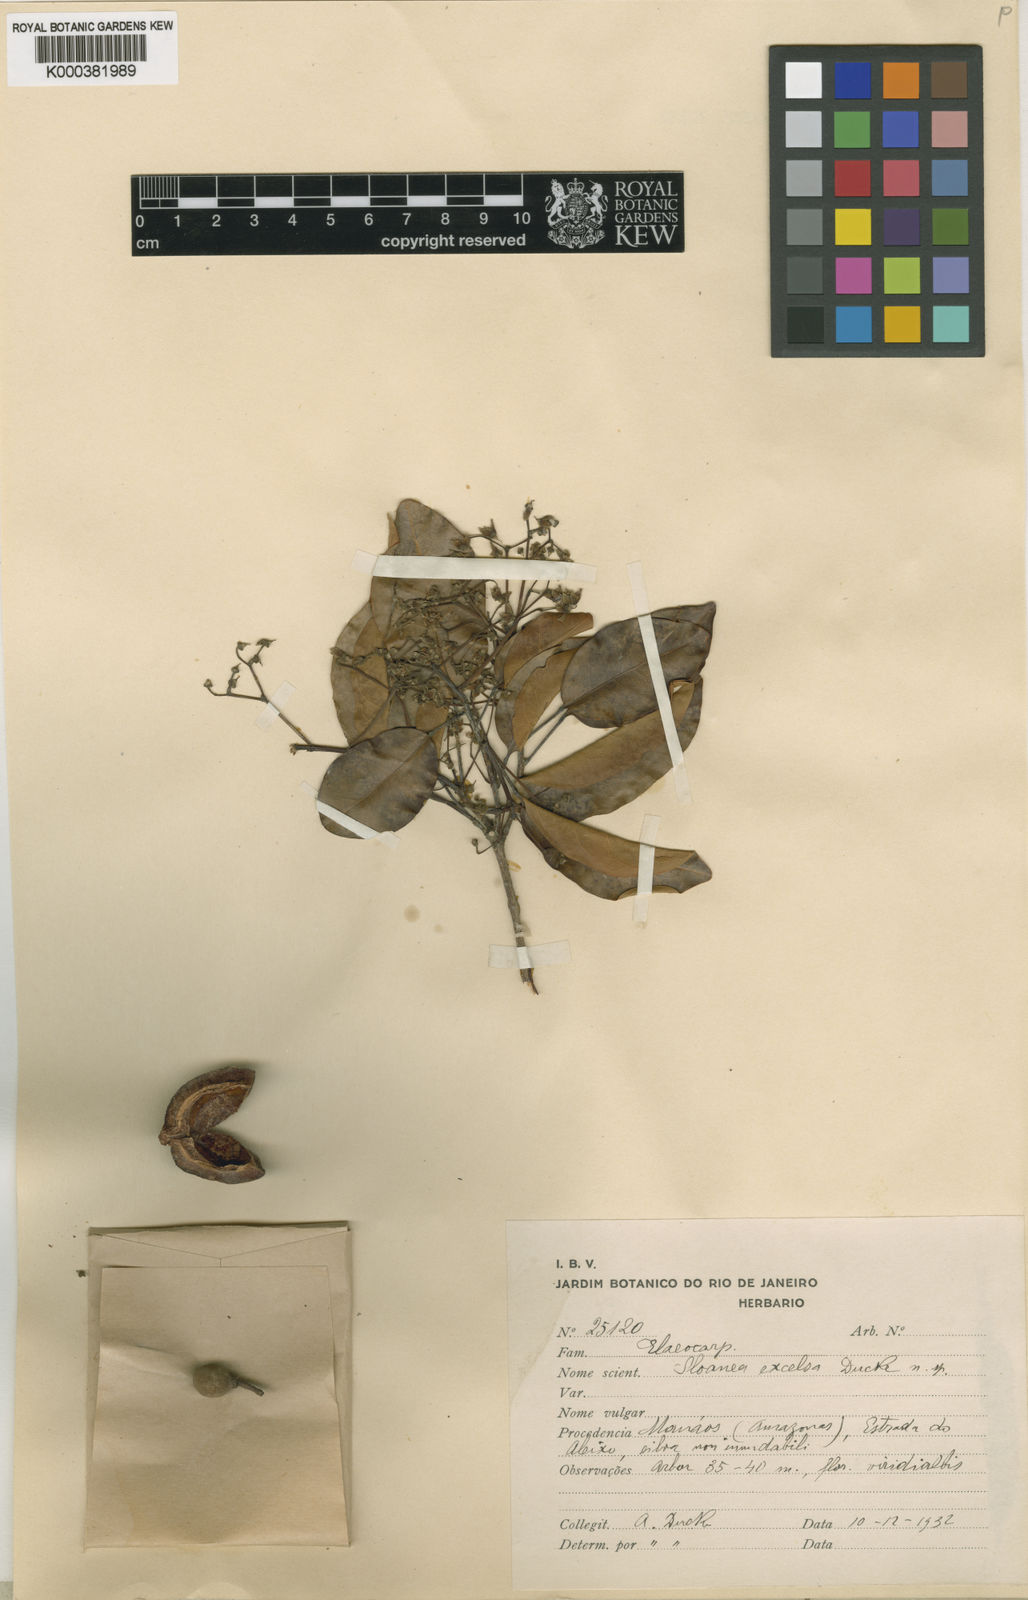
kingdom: Plantae
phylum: Tracheophyta
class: Magnoliopsida
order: Oxalidales
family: Elaeocarpaceae
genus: Sloanea
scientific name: Sloanea laurifolia
